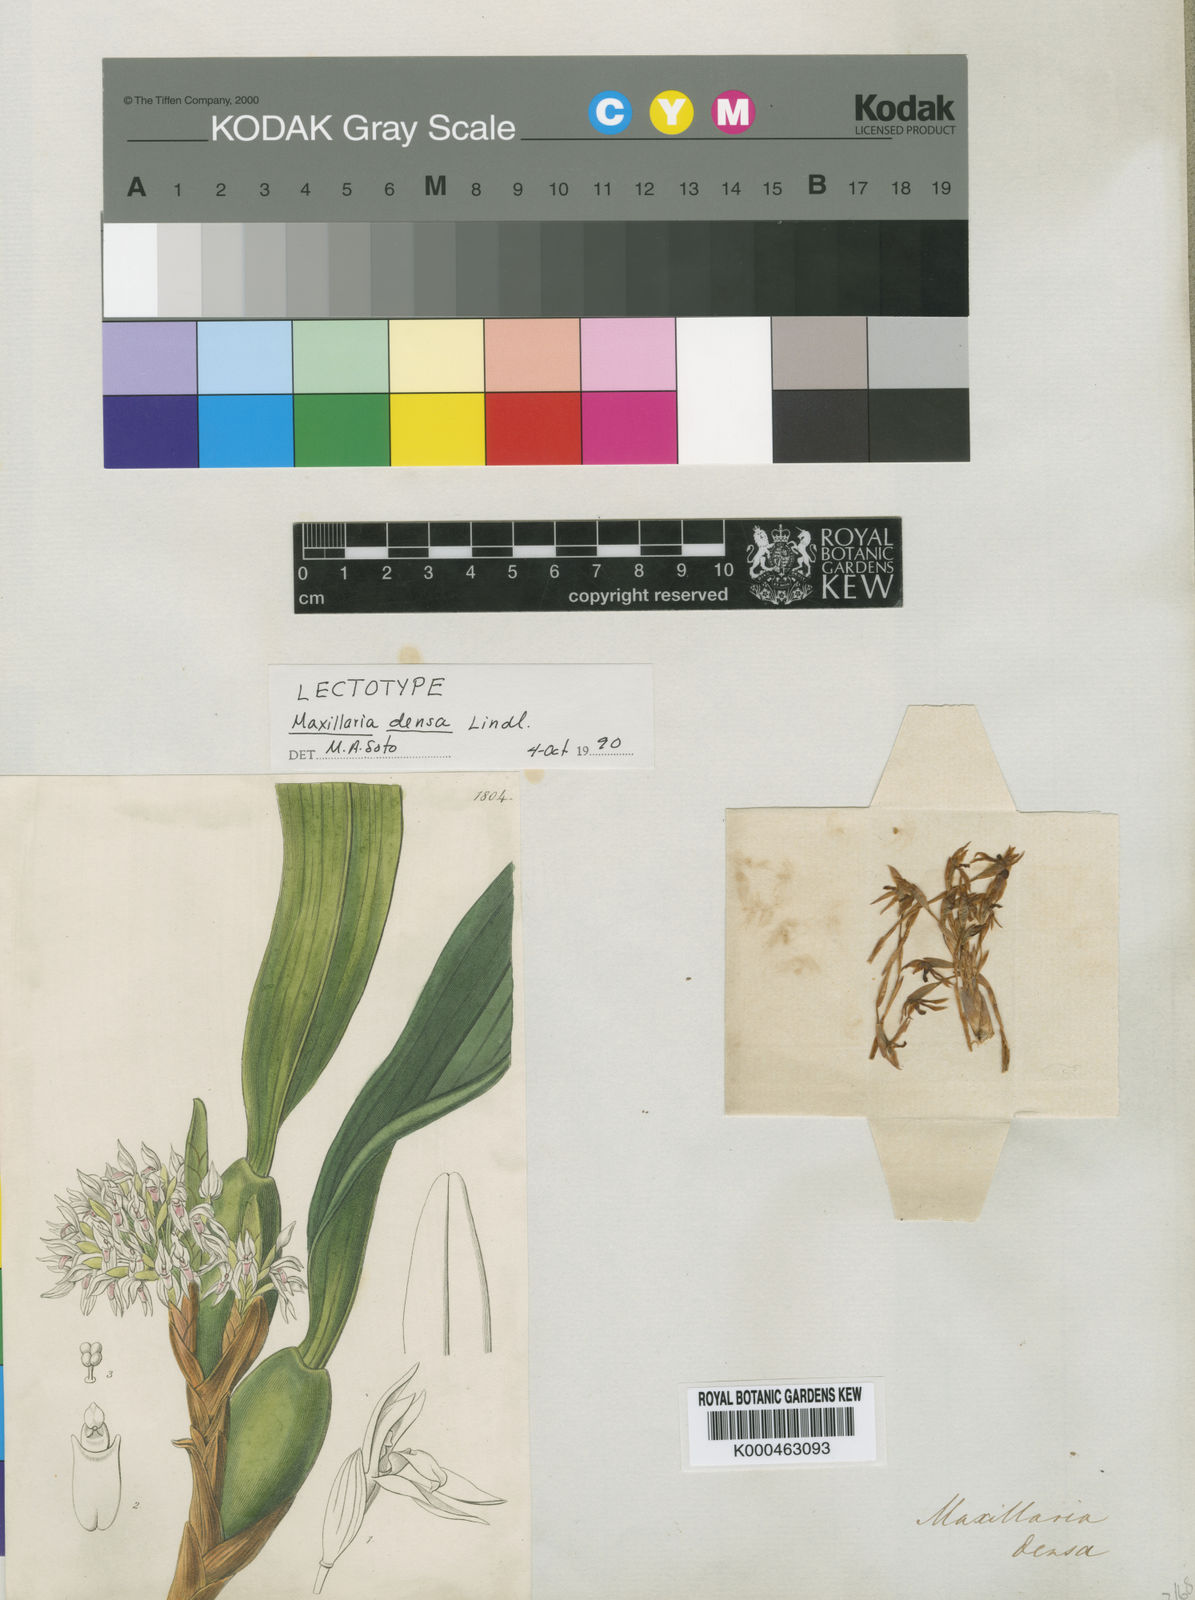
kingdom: Plantae
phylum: Tracheophyta
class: Liliopsida
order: Asparagales
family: Orchidaceae
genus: Maxillaria
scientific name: Maxillaria densa
